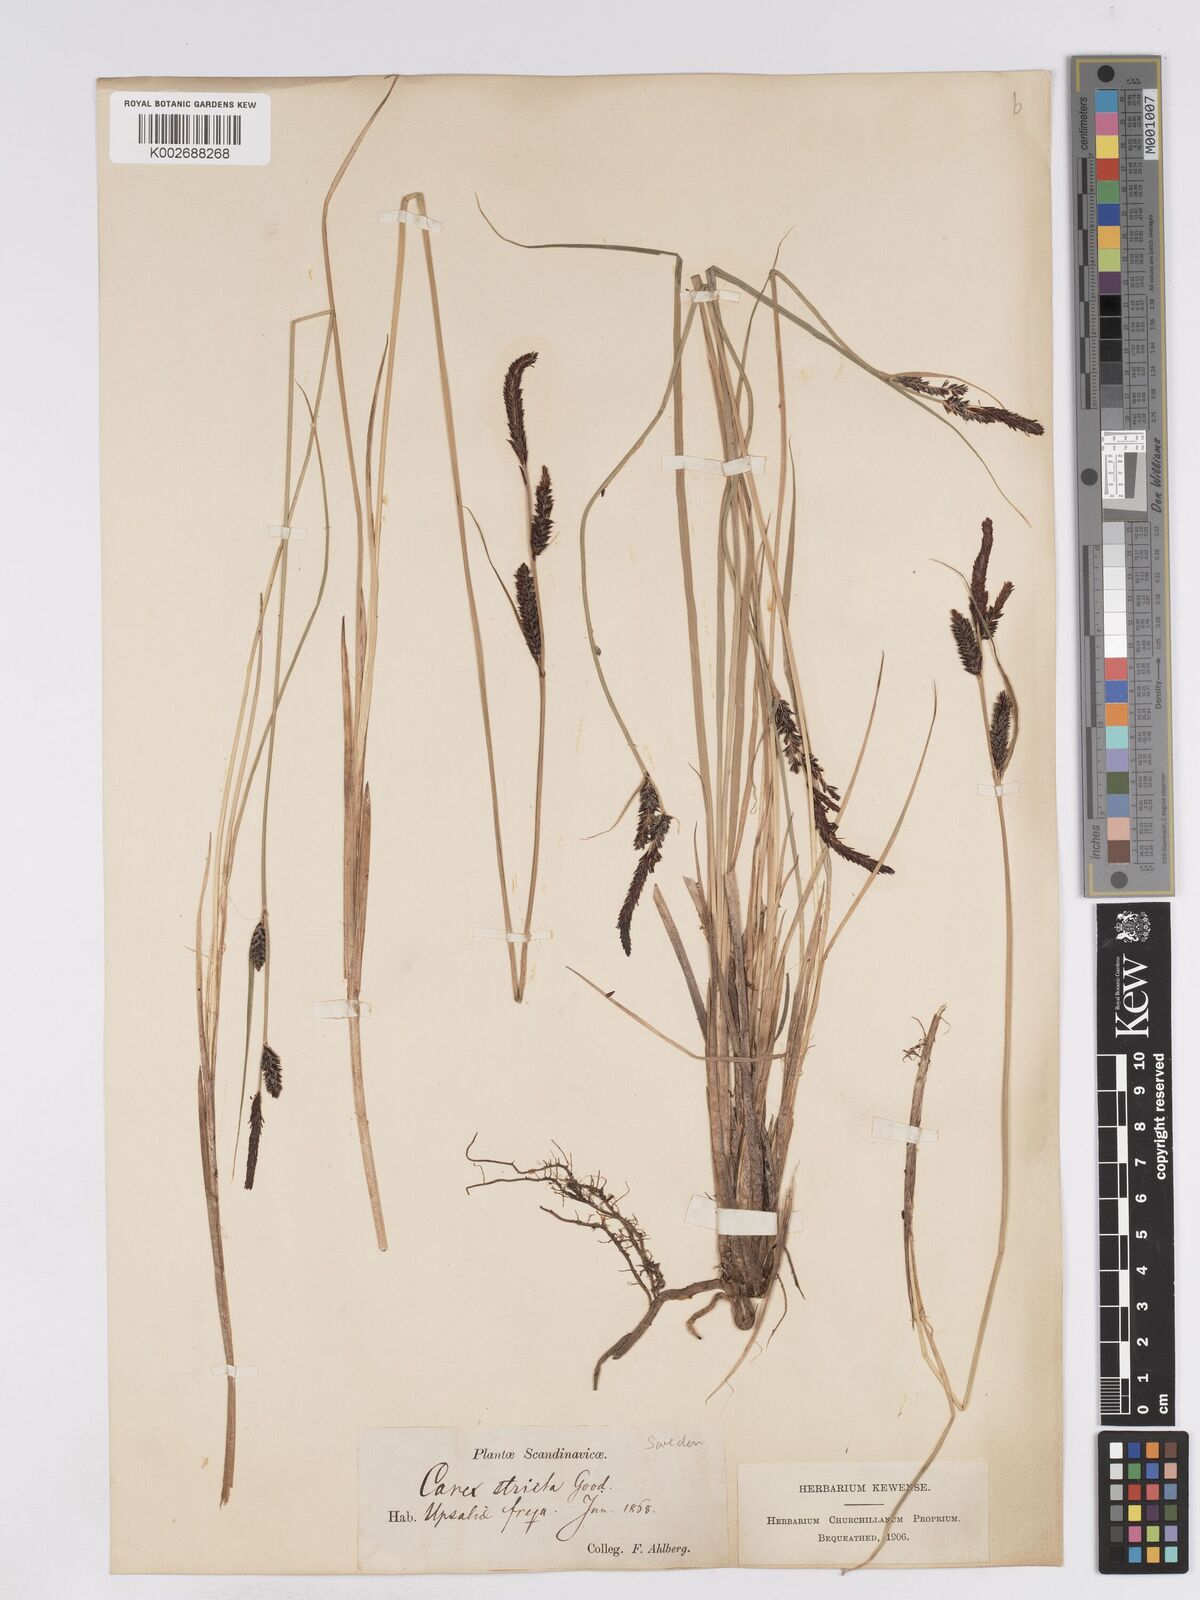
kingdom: Plantae
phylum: Tracheophyta
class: Liliopsida
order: Poales
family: Cyperaceae
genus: Carex
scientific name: Carex elata
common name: Tufted sedge
